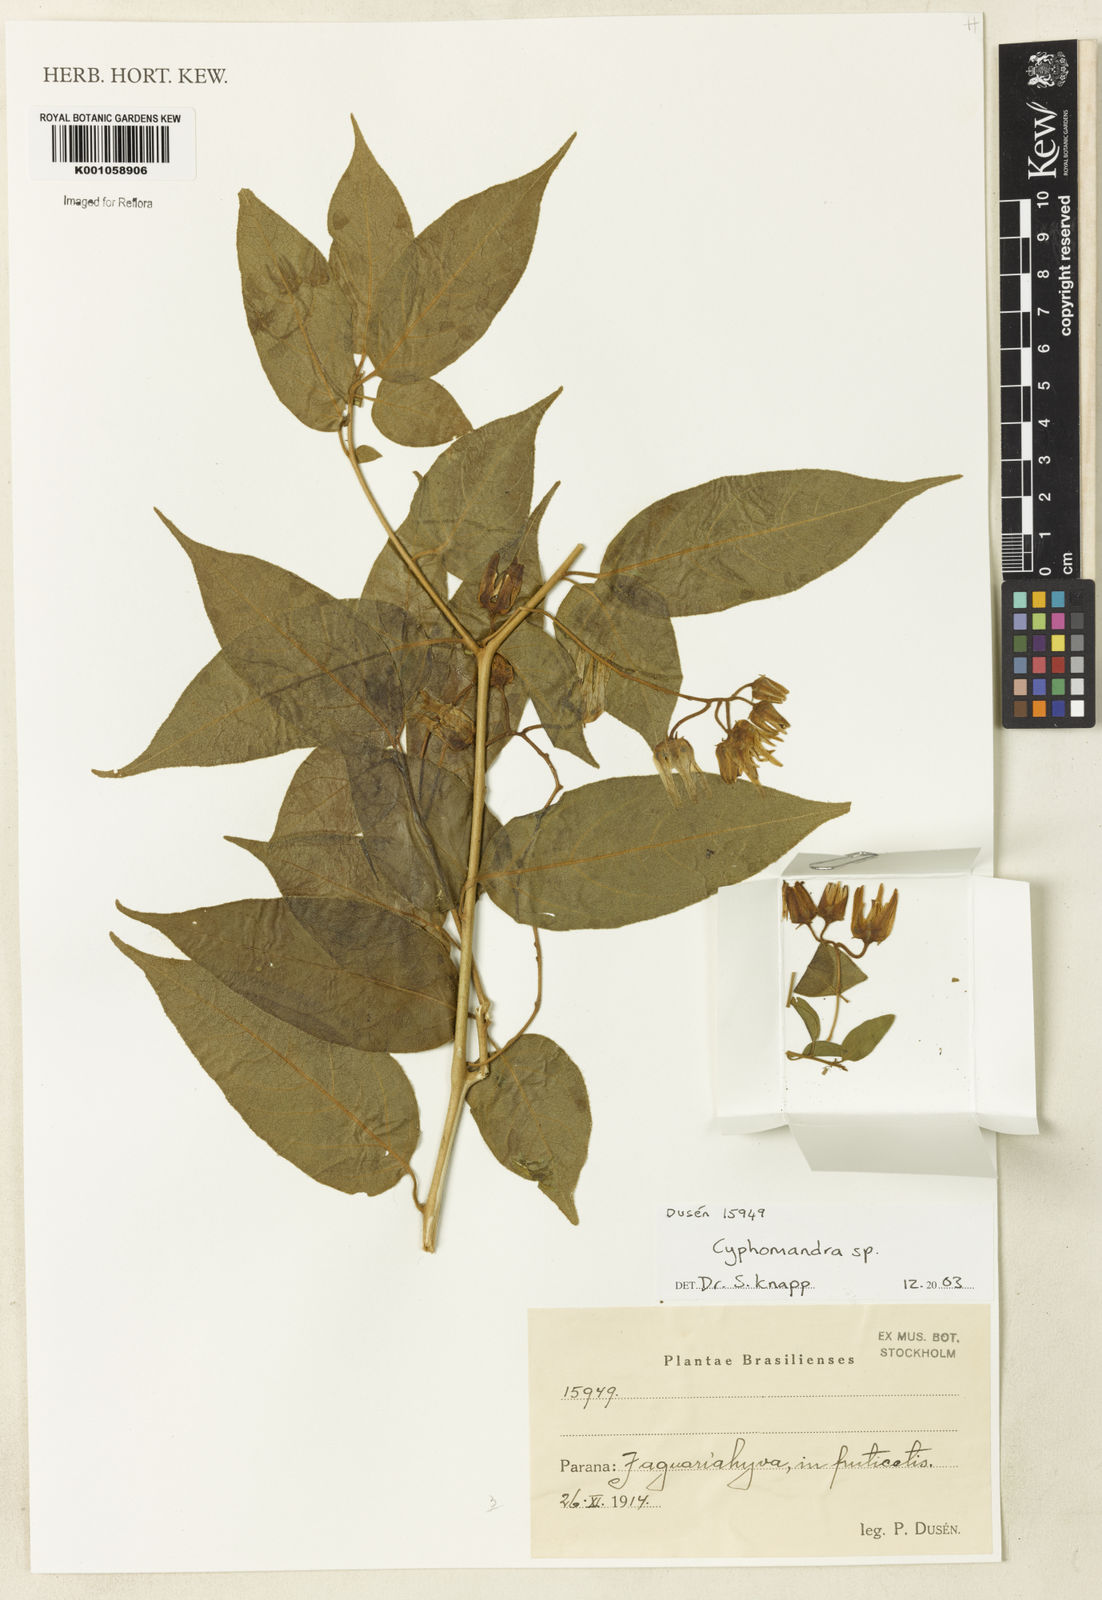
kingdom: Plantae
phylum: Tracheophyta
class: Magnoliopsida
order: Solanales
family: Solanaceae
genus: Solanum
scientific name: Solanum melissarum
